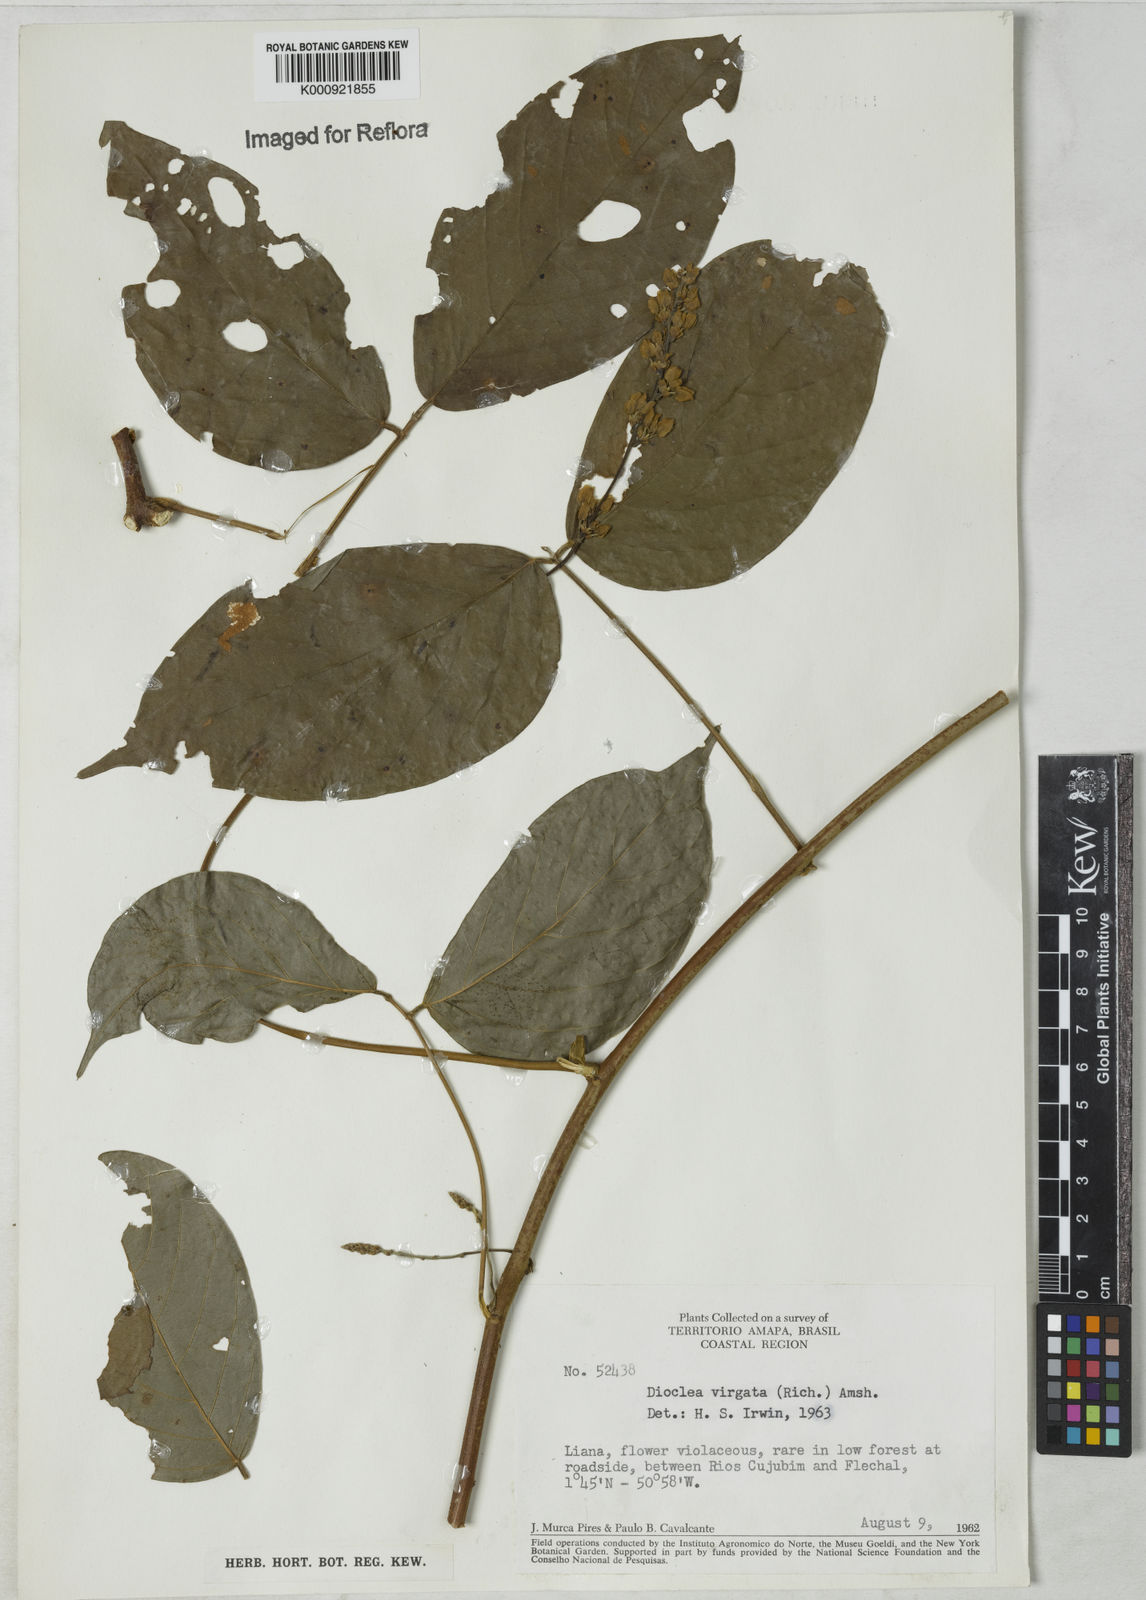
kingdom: Plantae
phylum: Tracheophyta
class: Magnoliopsida
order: Fabales
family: Fabaceae
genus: Dioclea
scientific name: Dioclea virgata
